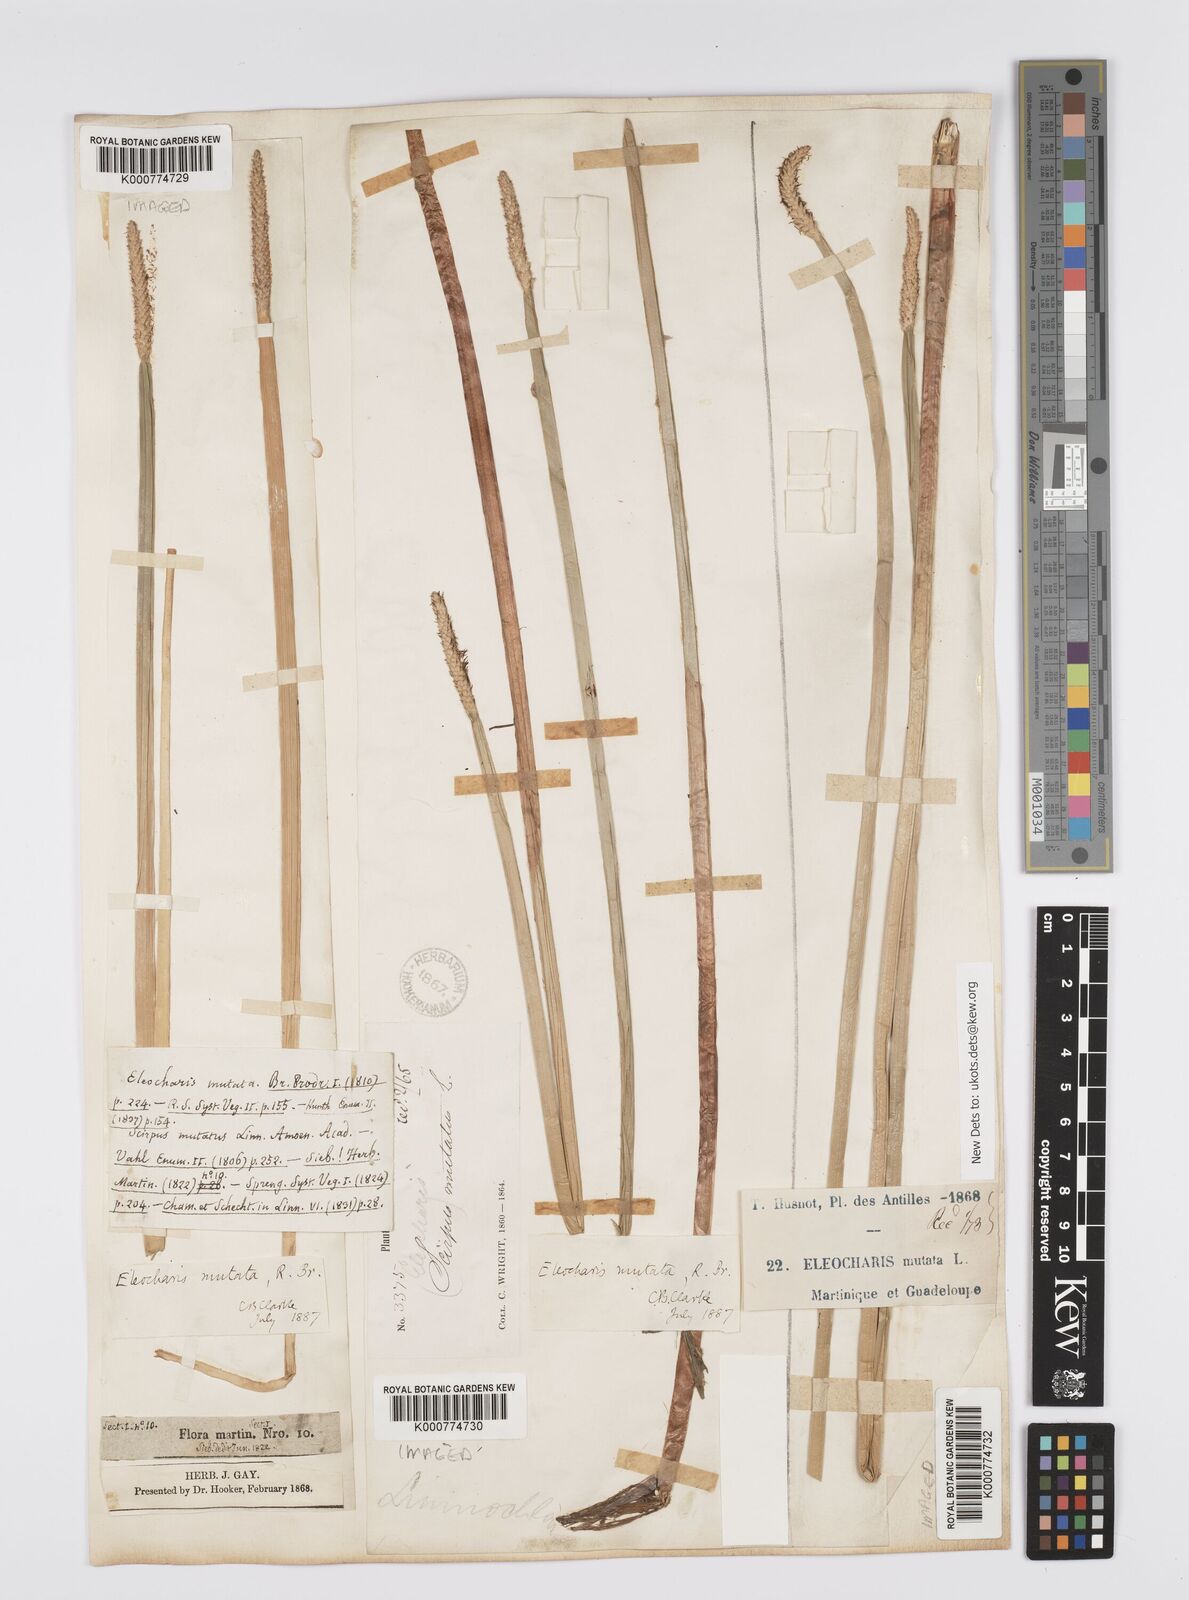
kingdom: Plantae
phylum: Tracheophyta
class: Liliopsida
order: Poales
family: Cyperaceae
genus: Eleocharis
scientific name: Eleocharis mutata
